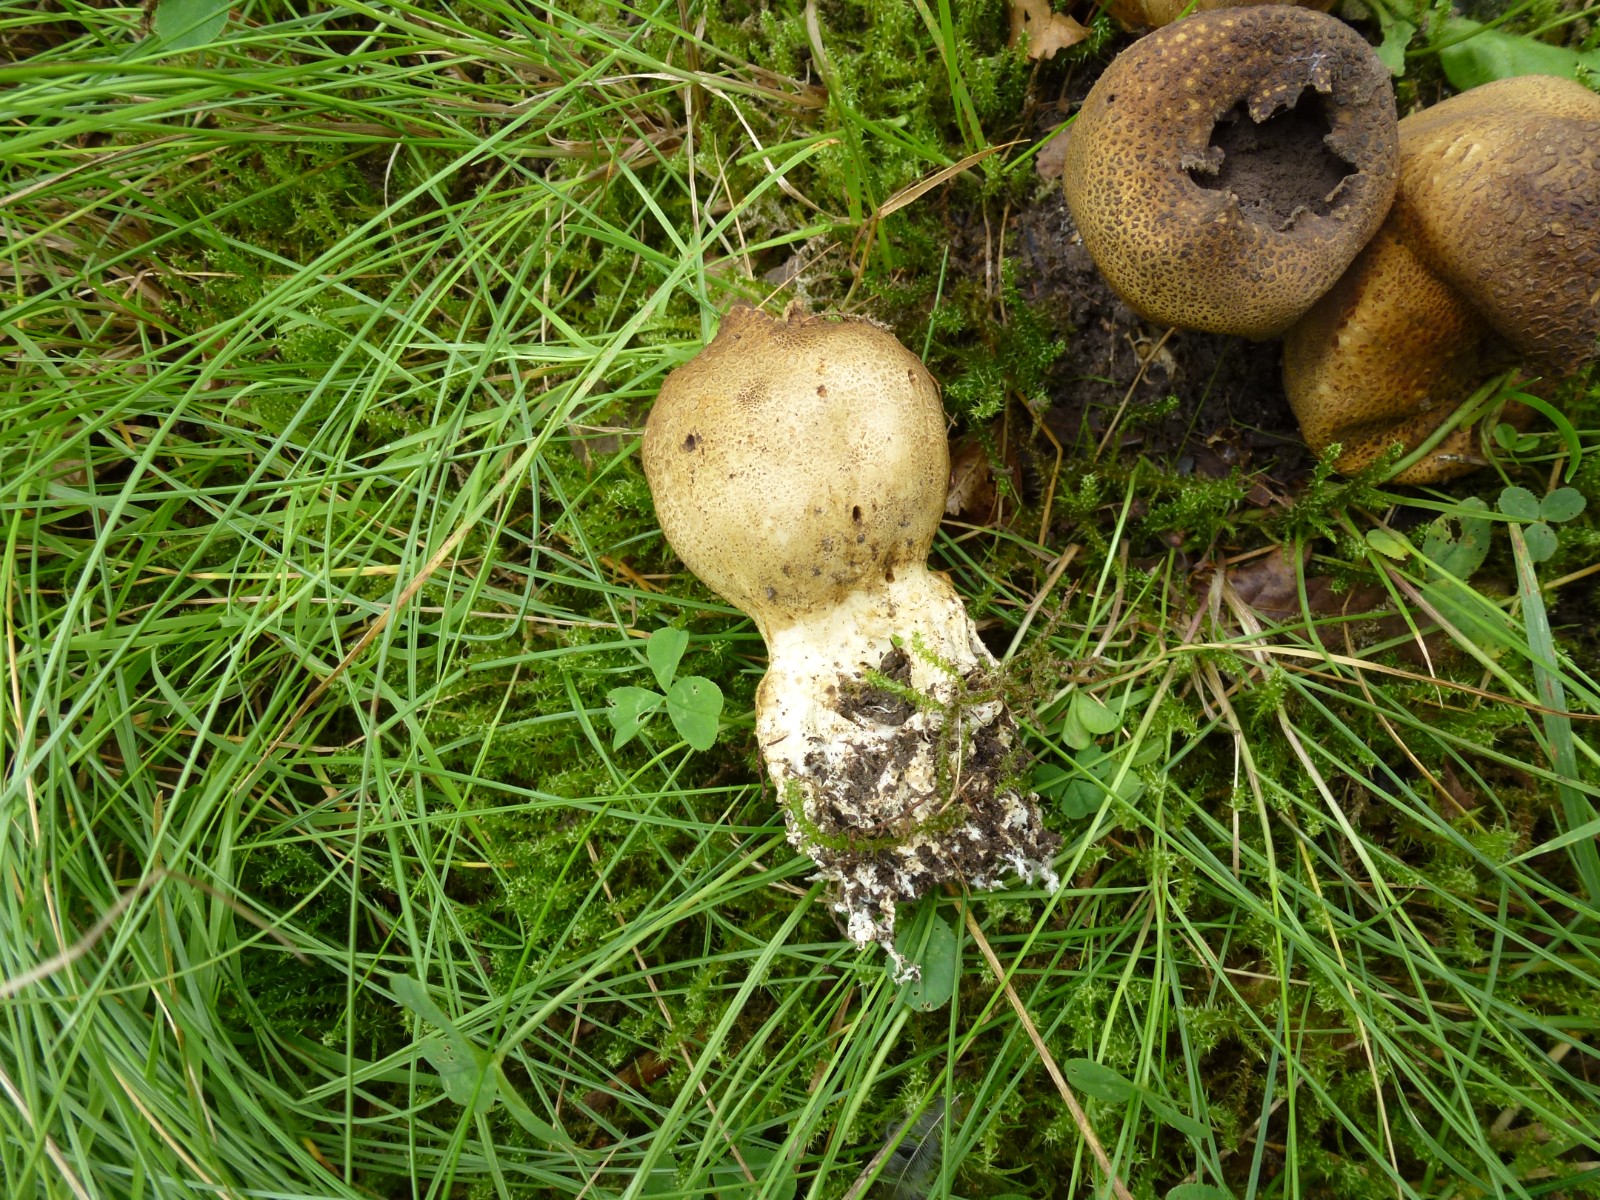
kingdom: Fungi
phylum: Basidiomycota
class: Agaricomycetes
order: Boletales
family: Sclerodermataceae
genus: Scleroderma
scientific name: Scleroderma verrucosum
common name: stilket bruskbold
